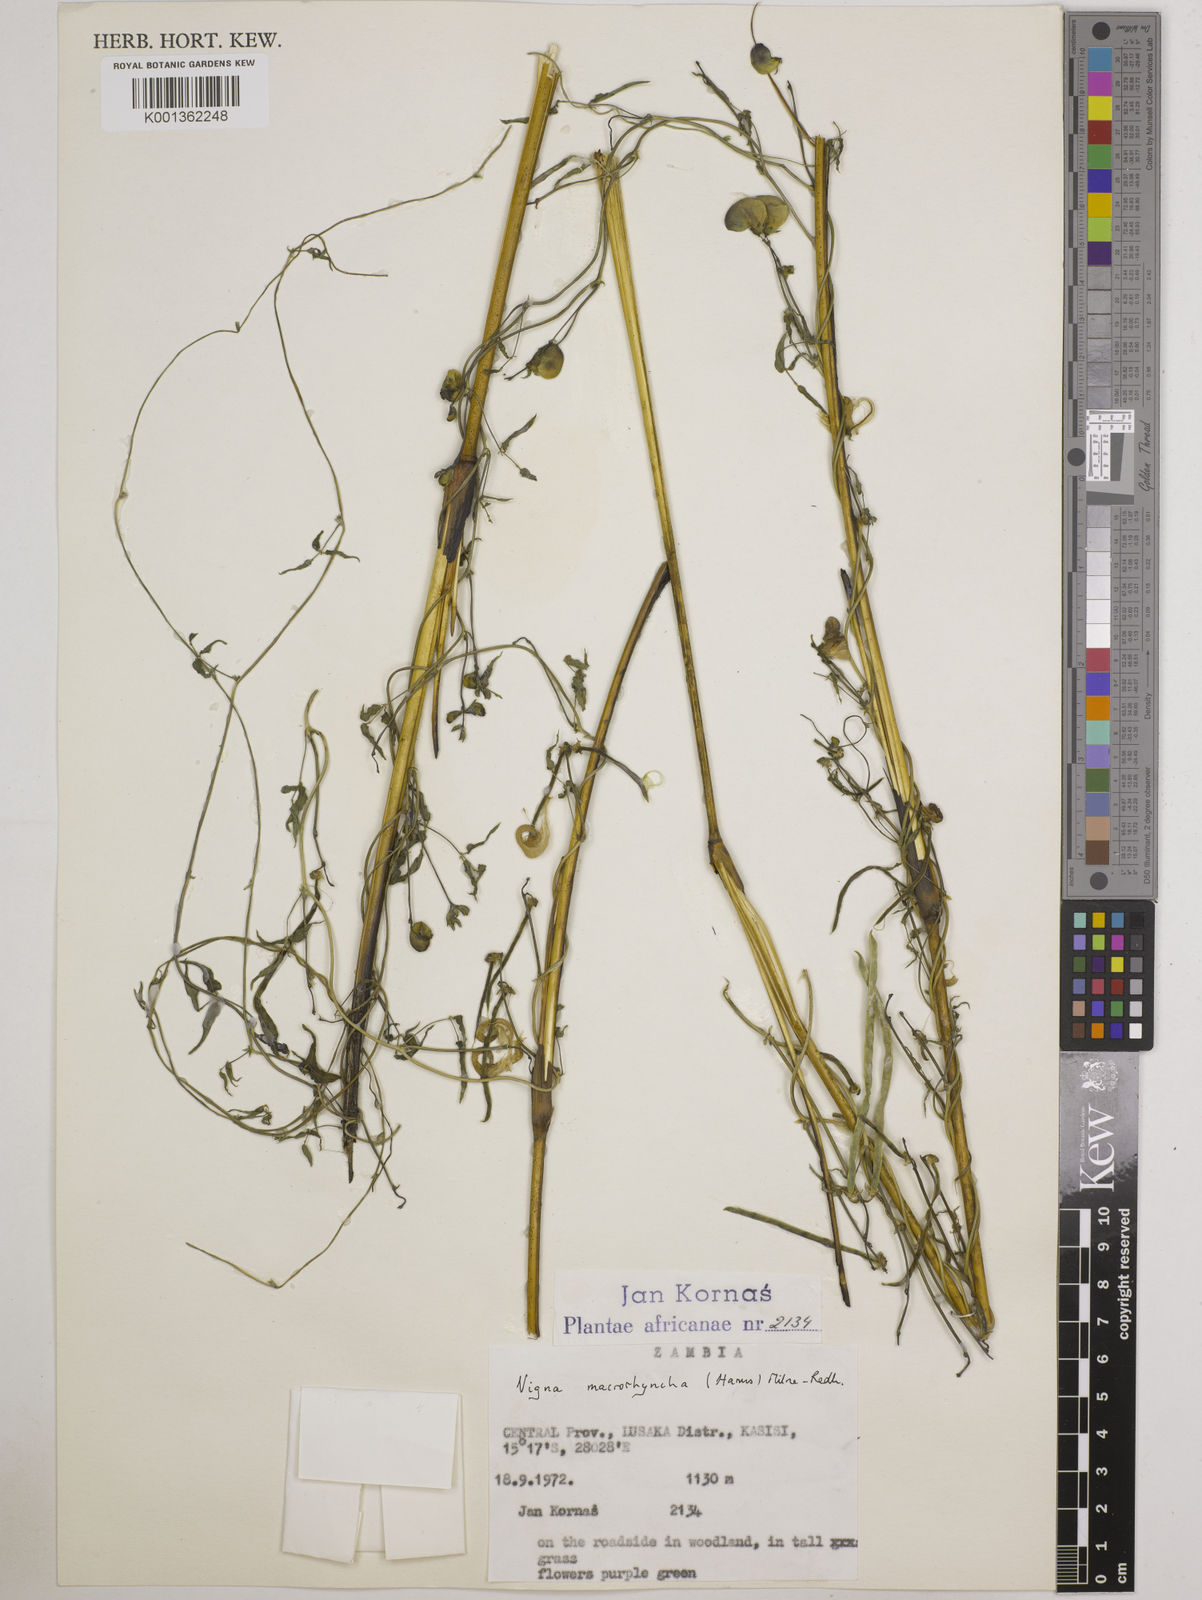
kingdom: Plantae
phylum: Tracheophyta
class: Magnoliopsida
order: Fabales
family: Fabaceae
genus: Wajira
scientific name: Wajira grahamiana
